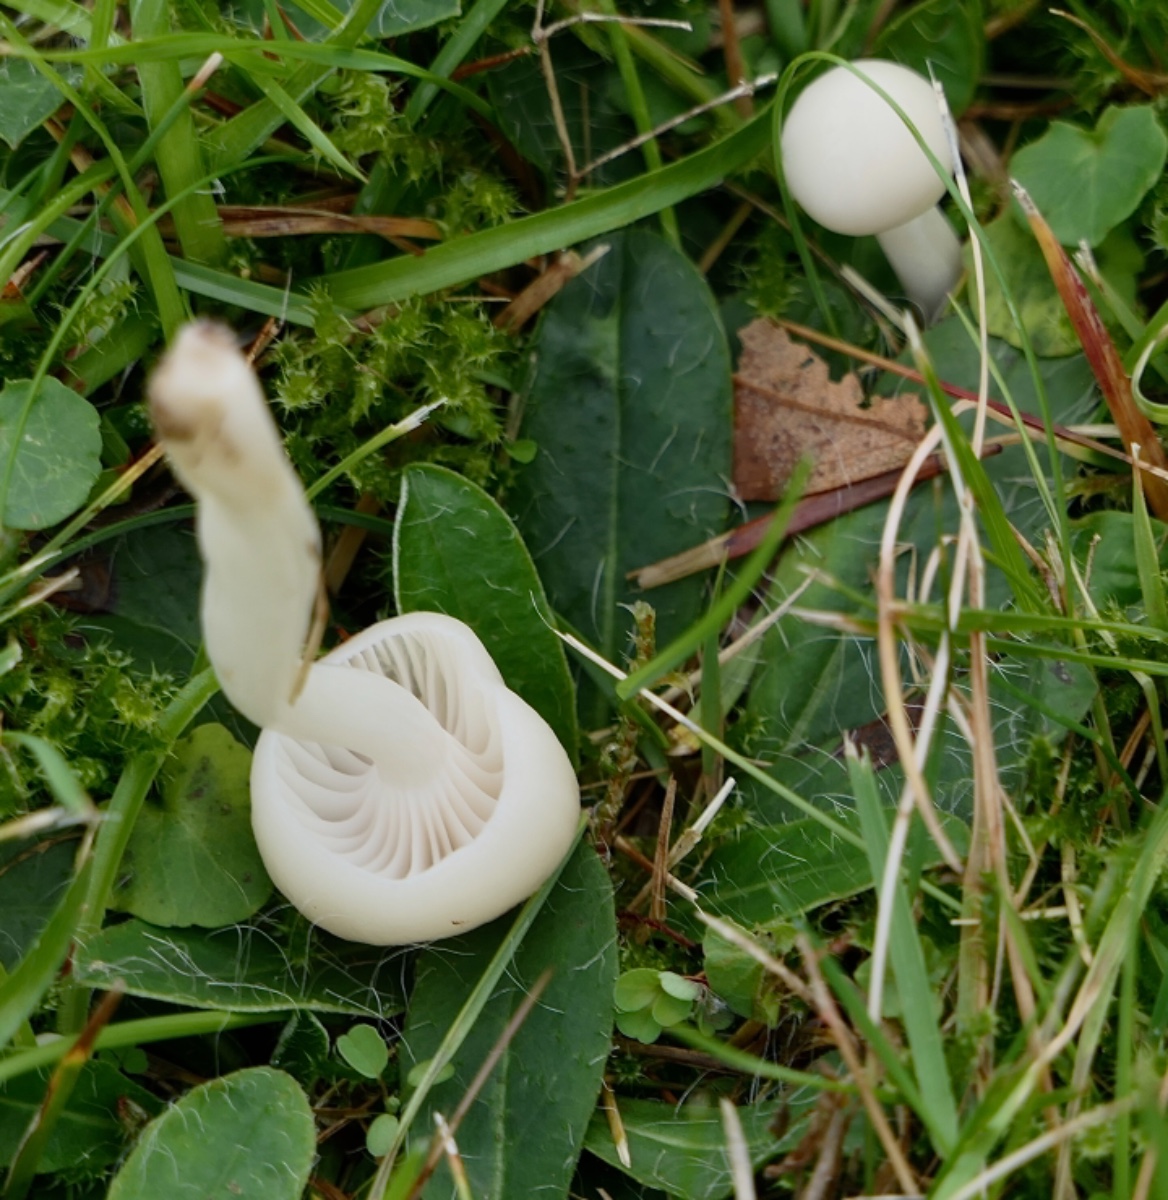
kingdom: Fungi
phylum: Basidiomycota
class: Agaricomycetes
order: Agaricales
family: Hygrophoraceae
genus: Cuphophyllus
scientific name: Cuphophyllus virgineus
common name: snehvid vokshat
